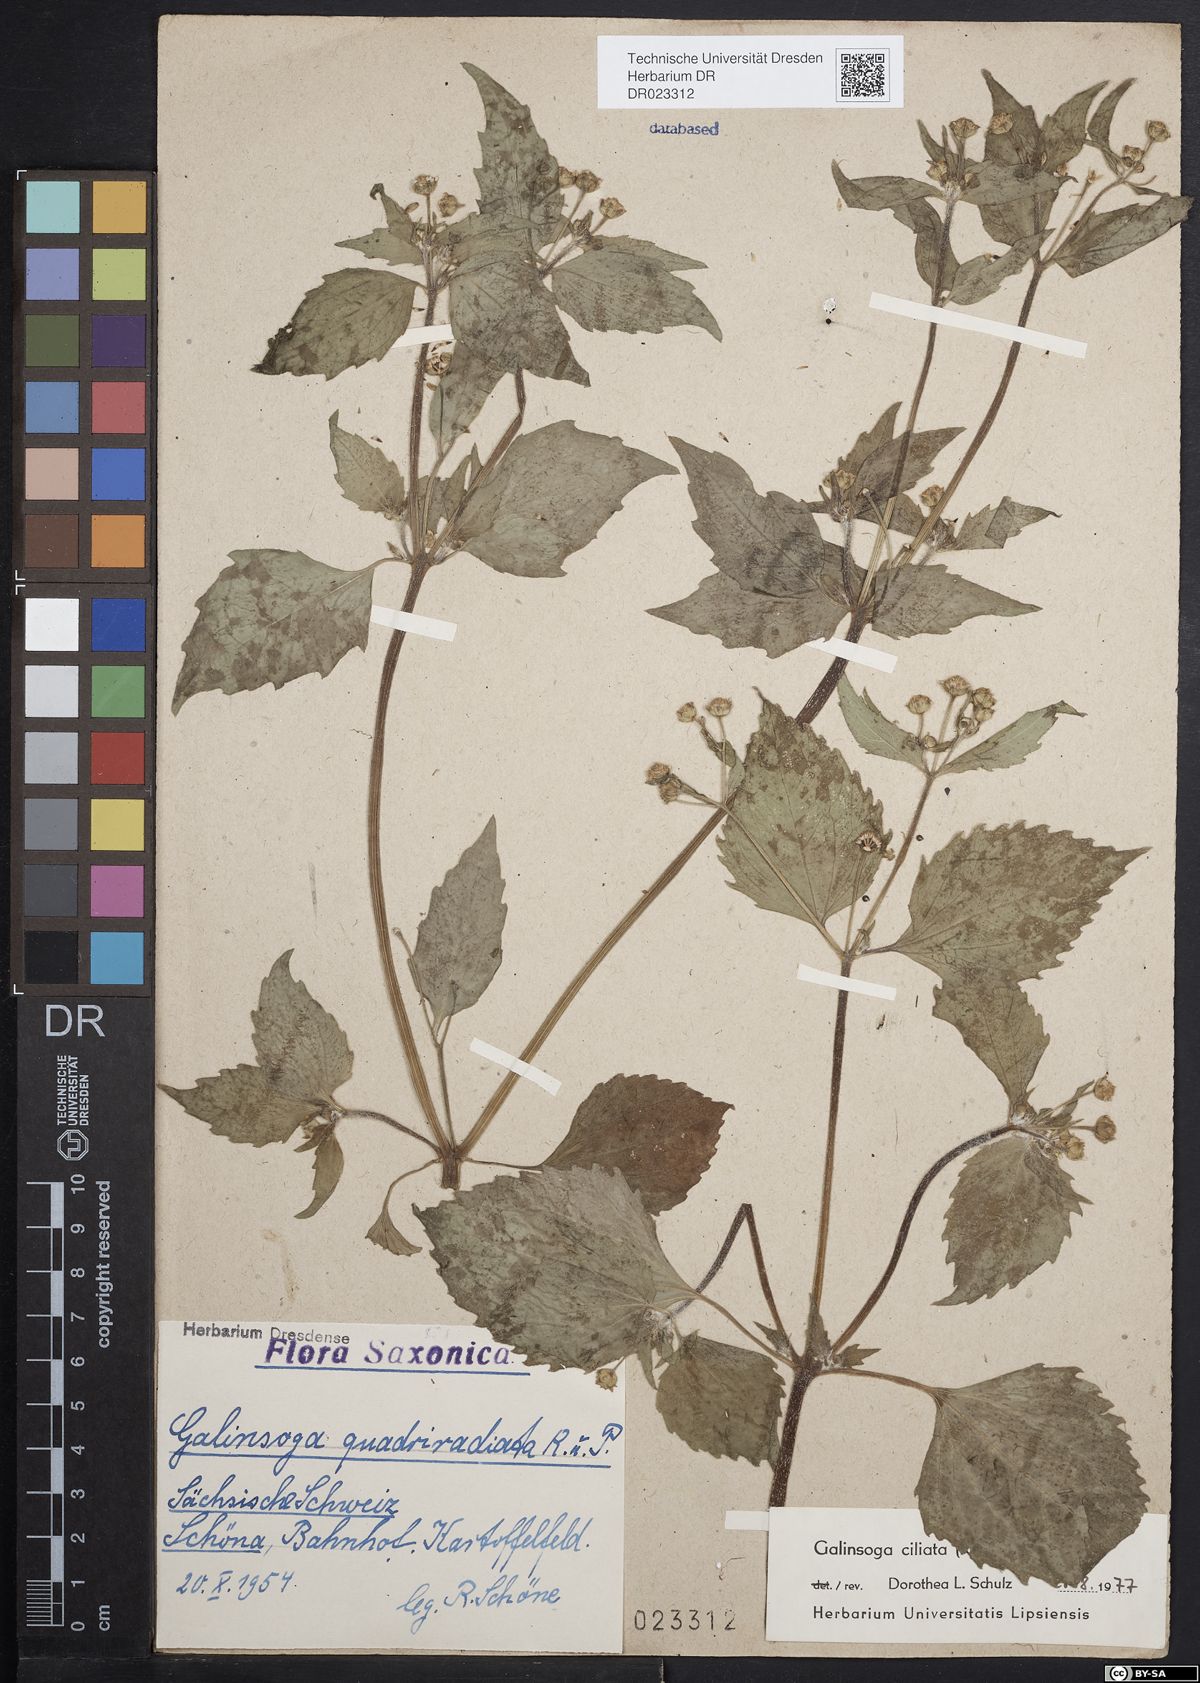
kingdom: Plantae
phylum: Tracheophyta
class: Magnoliopsida
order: Asterales
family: Asteraceae
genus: Galinsoga
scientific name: Galinsoga quadriradiata
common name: Shaggy soldier
